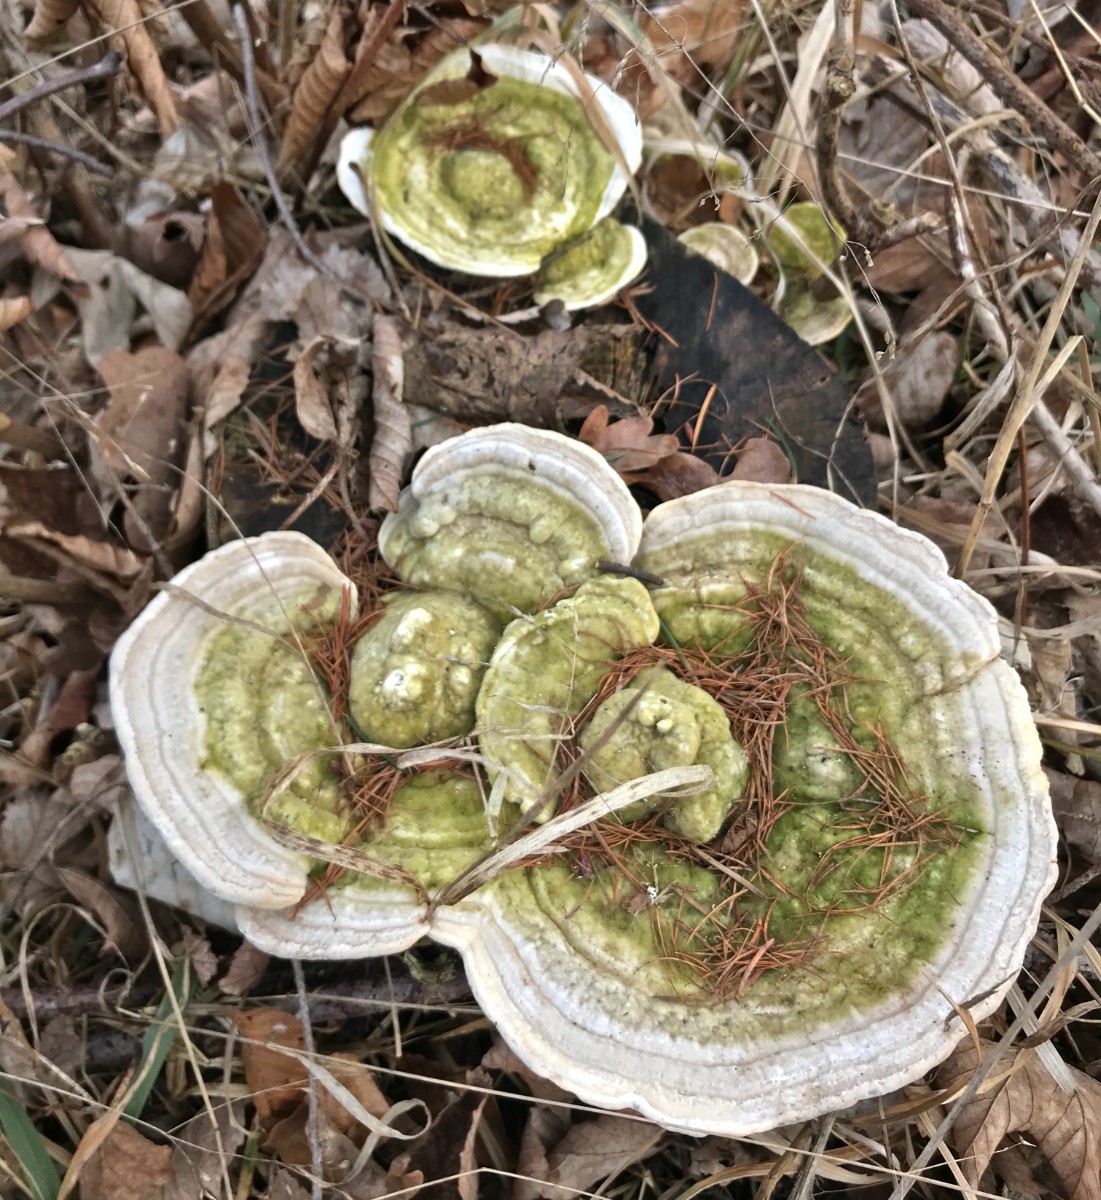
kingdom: Fungi
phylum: Basidiomycota
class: Agaricomycetes
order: Polyporales
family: Polyporaceae
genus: Trametes
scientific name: Trametes gibbosa
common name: puklet læderporesvamp
